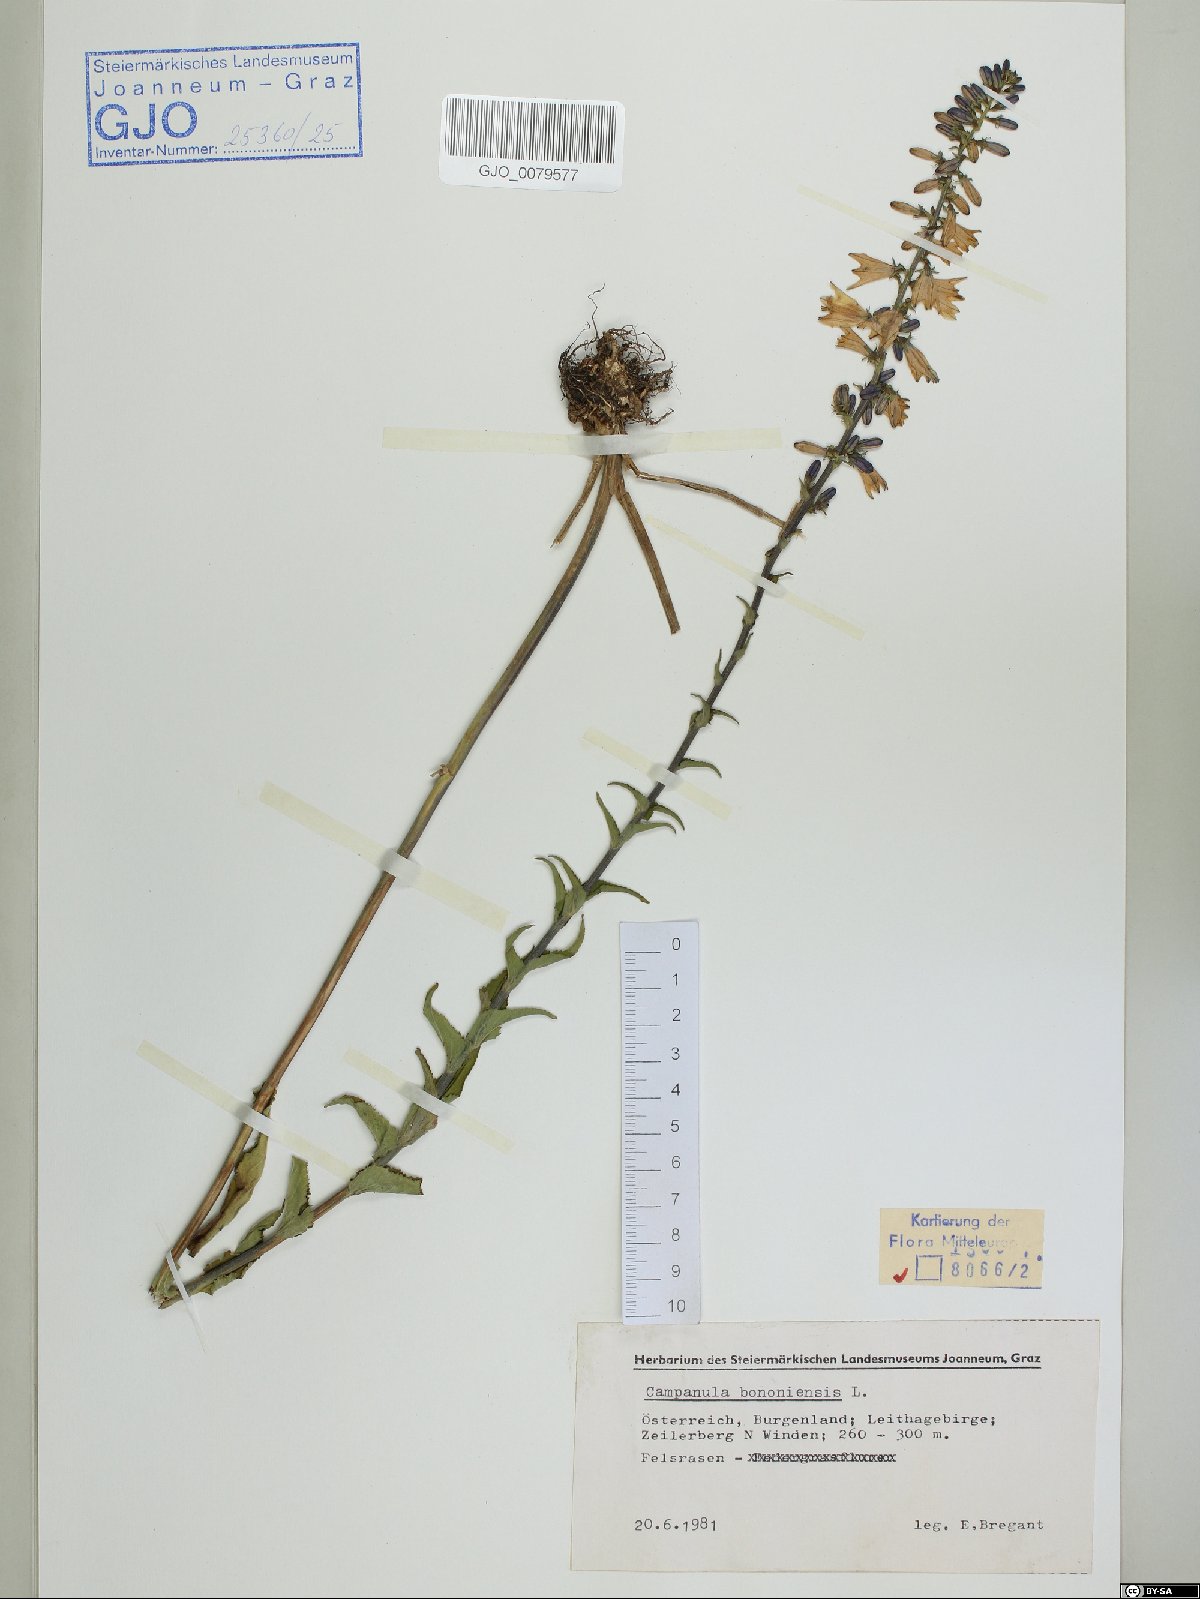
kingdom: Plantae
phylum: Tracheophyta
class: Magnoliopsida
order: Asterales
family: Campanulaceae
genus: Campanula
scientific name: Campanula bononiensis
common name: Pale bellflower
